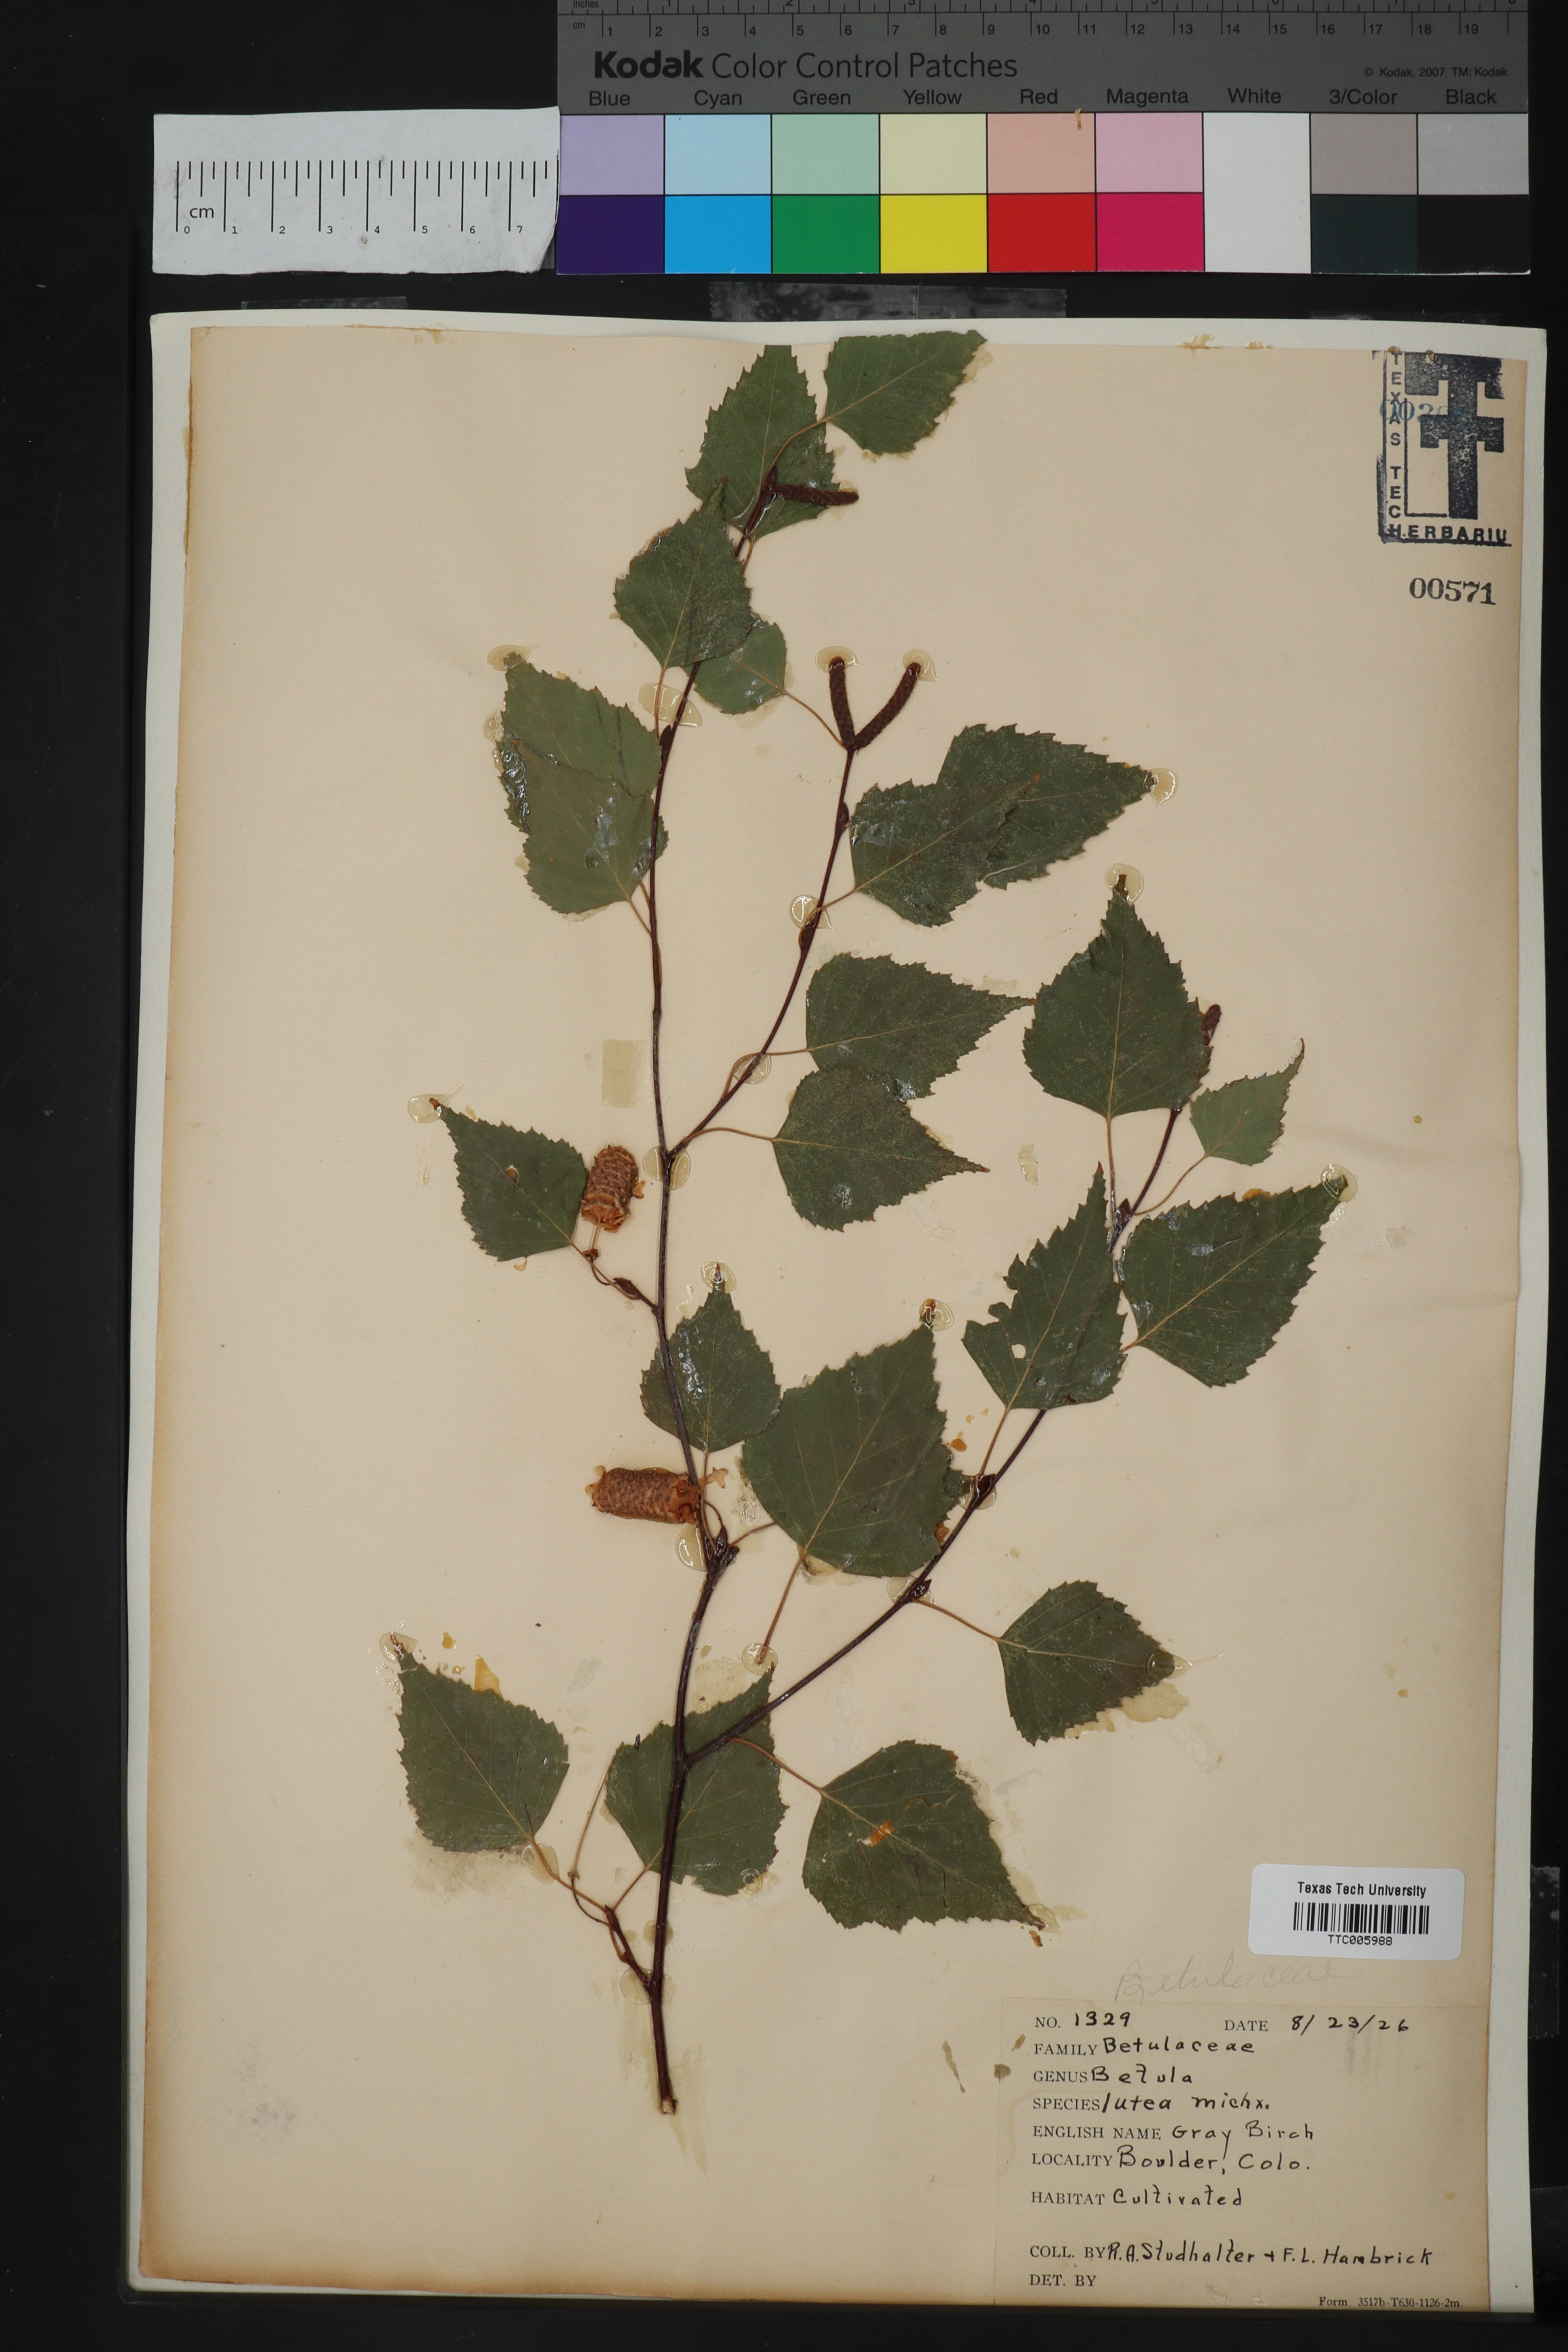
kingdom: Plantae
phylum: Tracheophyta
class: Magnoliopsida
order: Fagales
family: Betulaceae
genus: Betula
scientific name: Betula alleghaniensis
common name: Yellow birch
